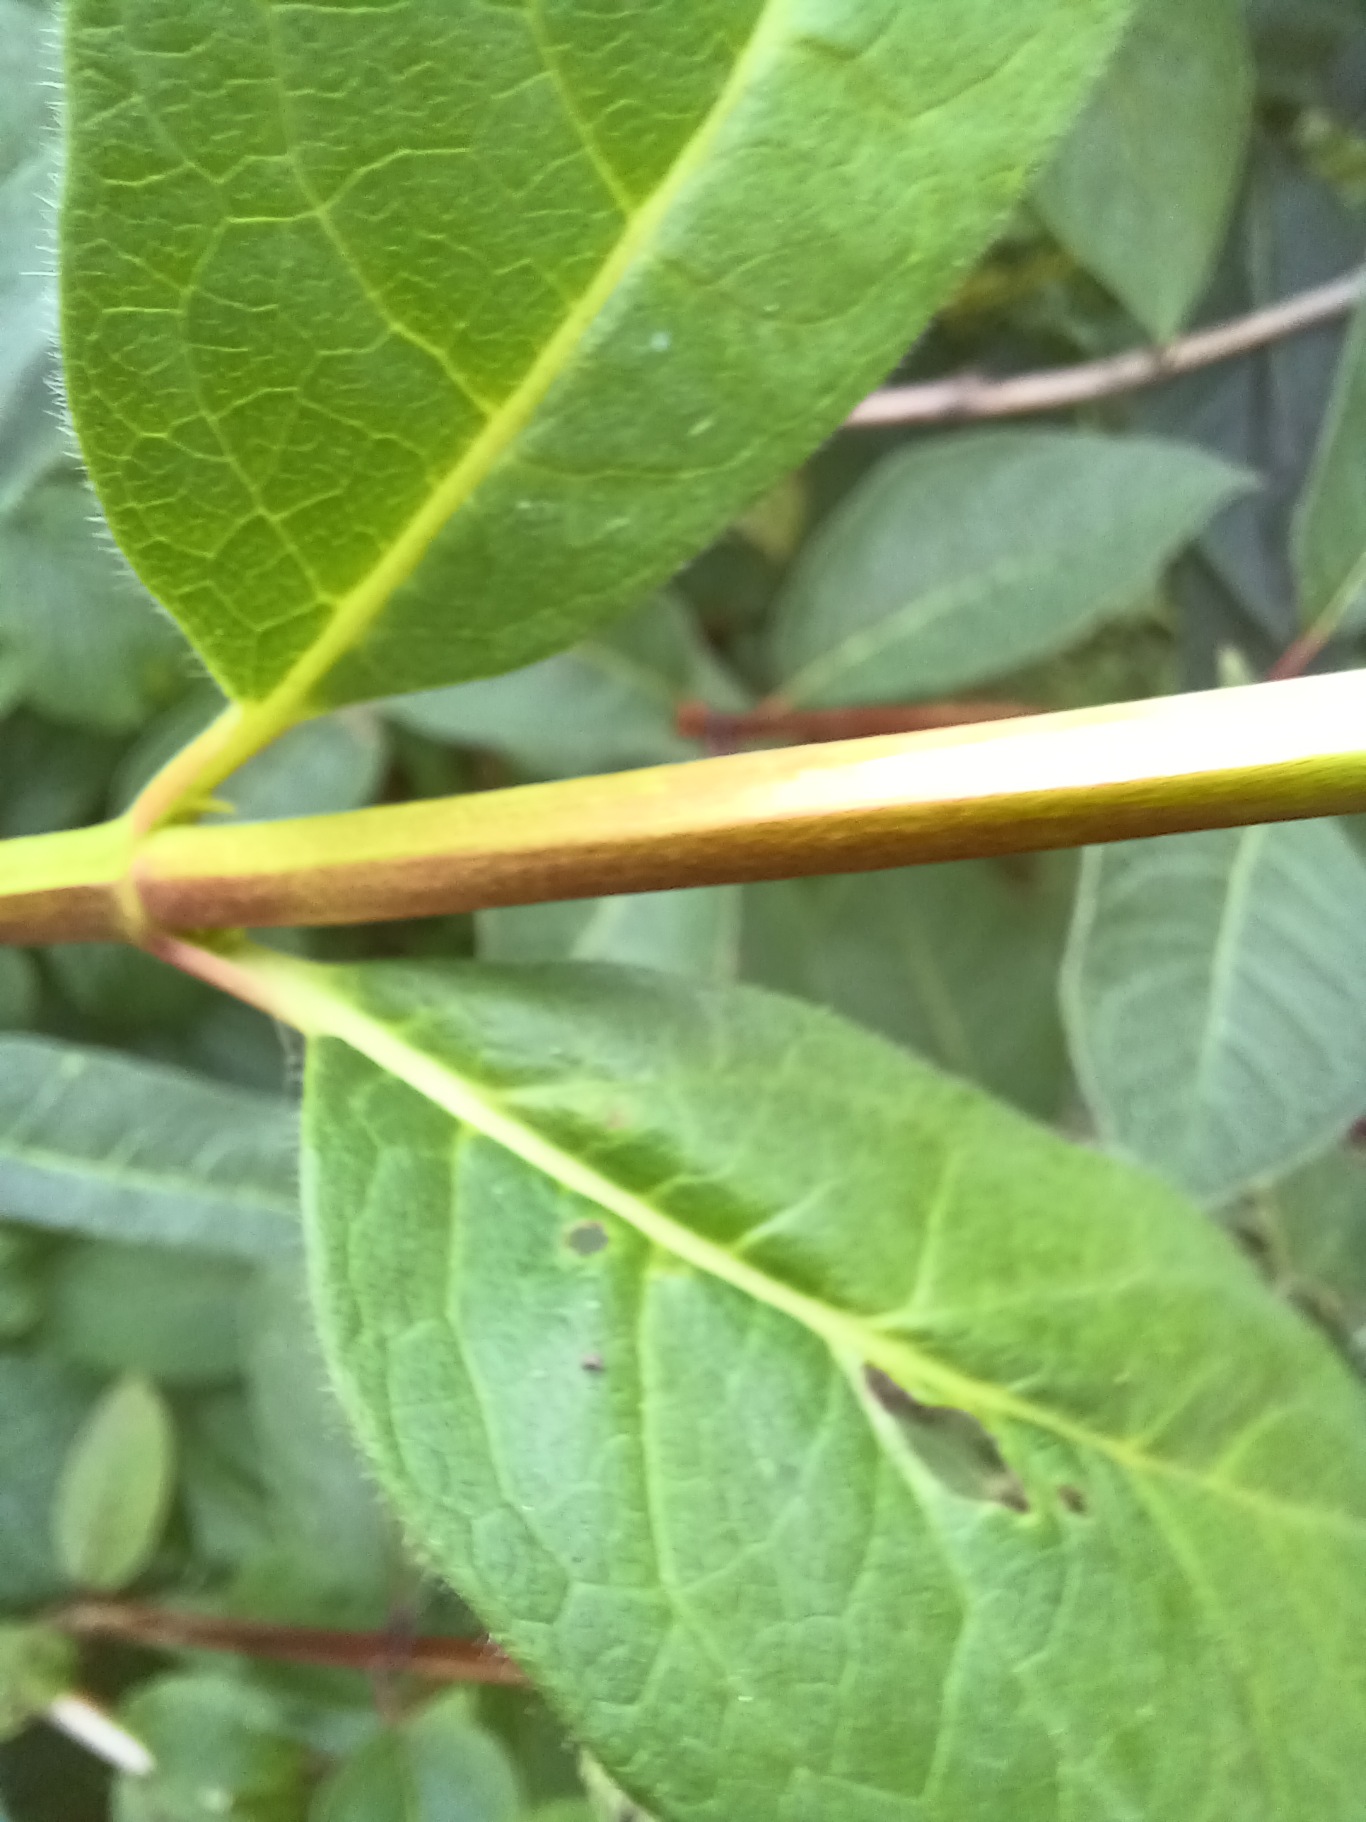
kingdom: Plantae
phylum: Tracheophyta
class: Magnoliopsida
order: Dipsacales
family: Caprifoliaceae
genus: Lonicera
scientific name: Lonicera involucrata
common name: Californisk gedeblad
